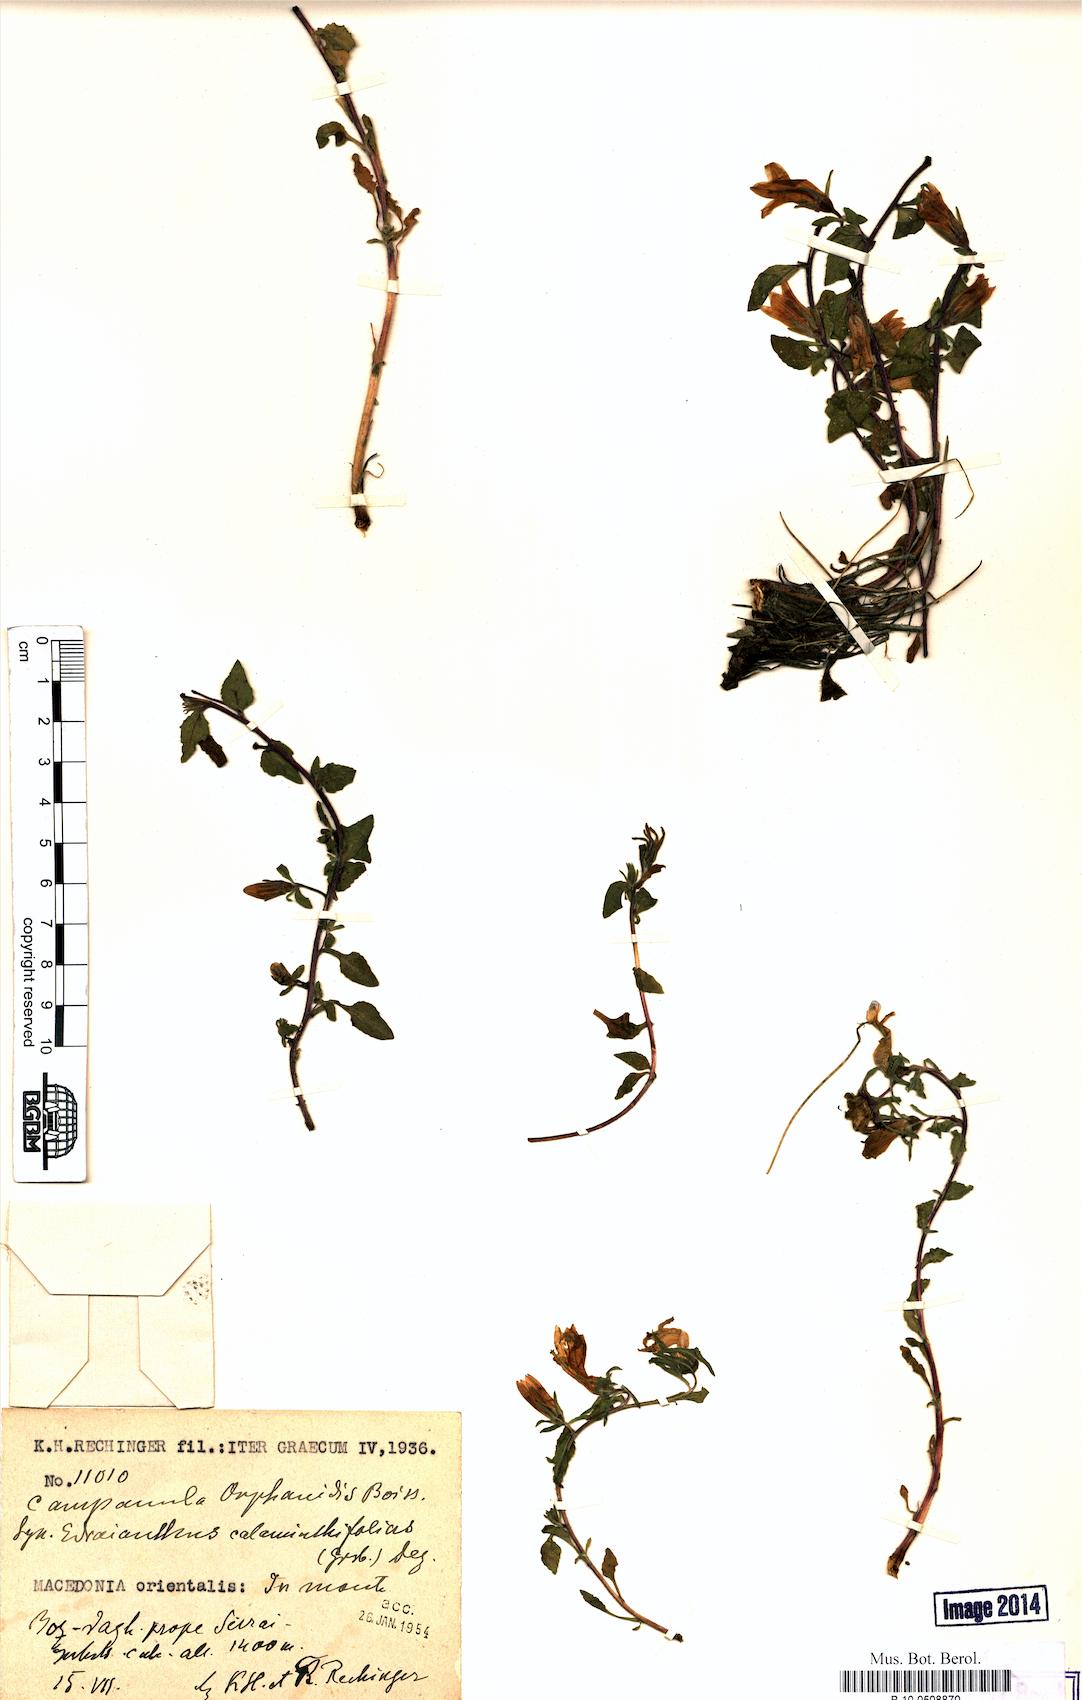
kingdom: Plantae
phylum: Tracheophyta
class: Magnoliopsida
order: Asterales
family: Campanulaceae
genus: Campanula
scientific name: Campanula orphanidea
